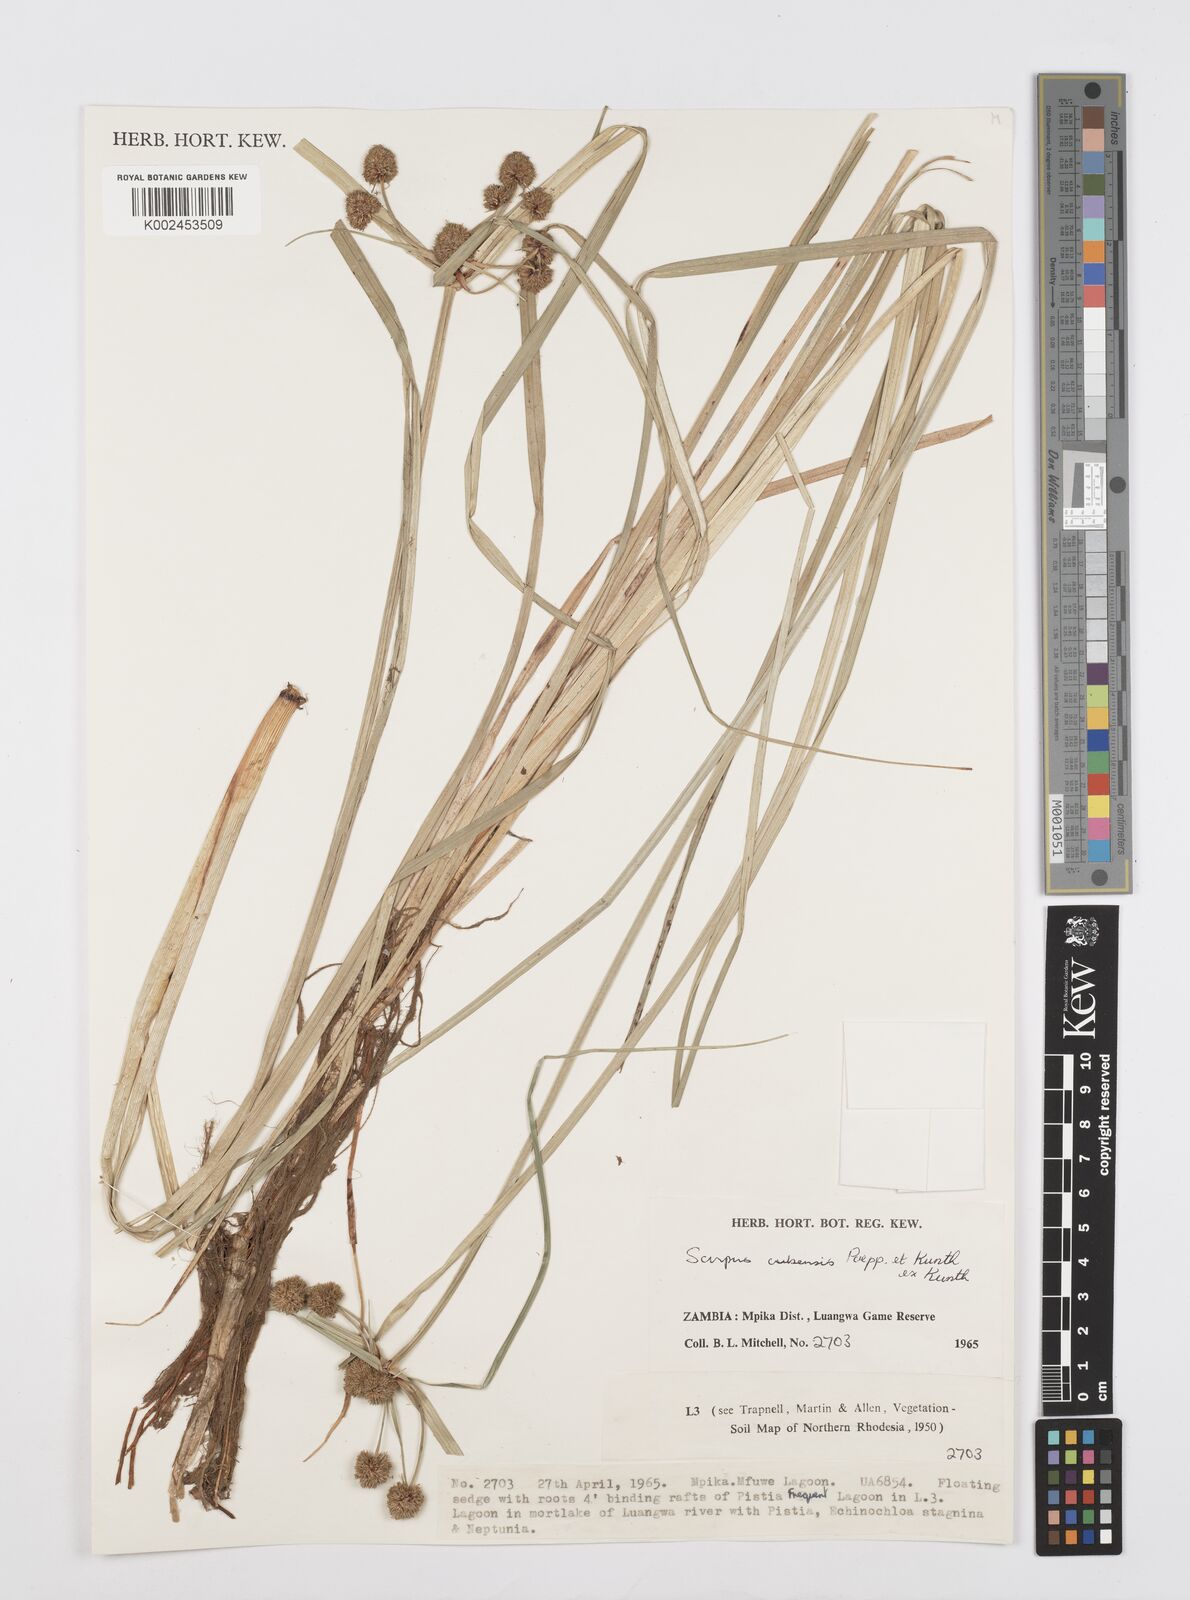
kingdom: Plantae
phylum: Tracheophyta
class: Liliopsida
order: Poales
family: Cyperaceae
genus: Cyperus
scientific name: Cyperus elegans
